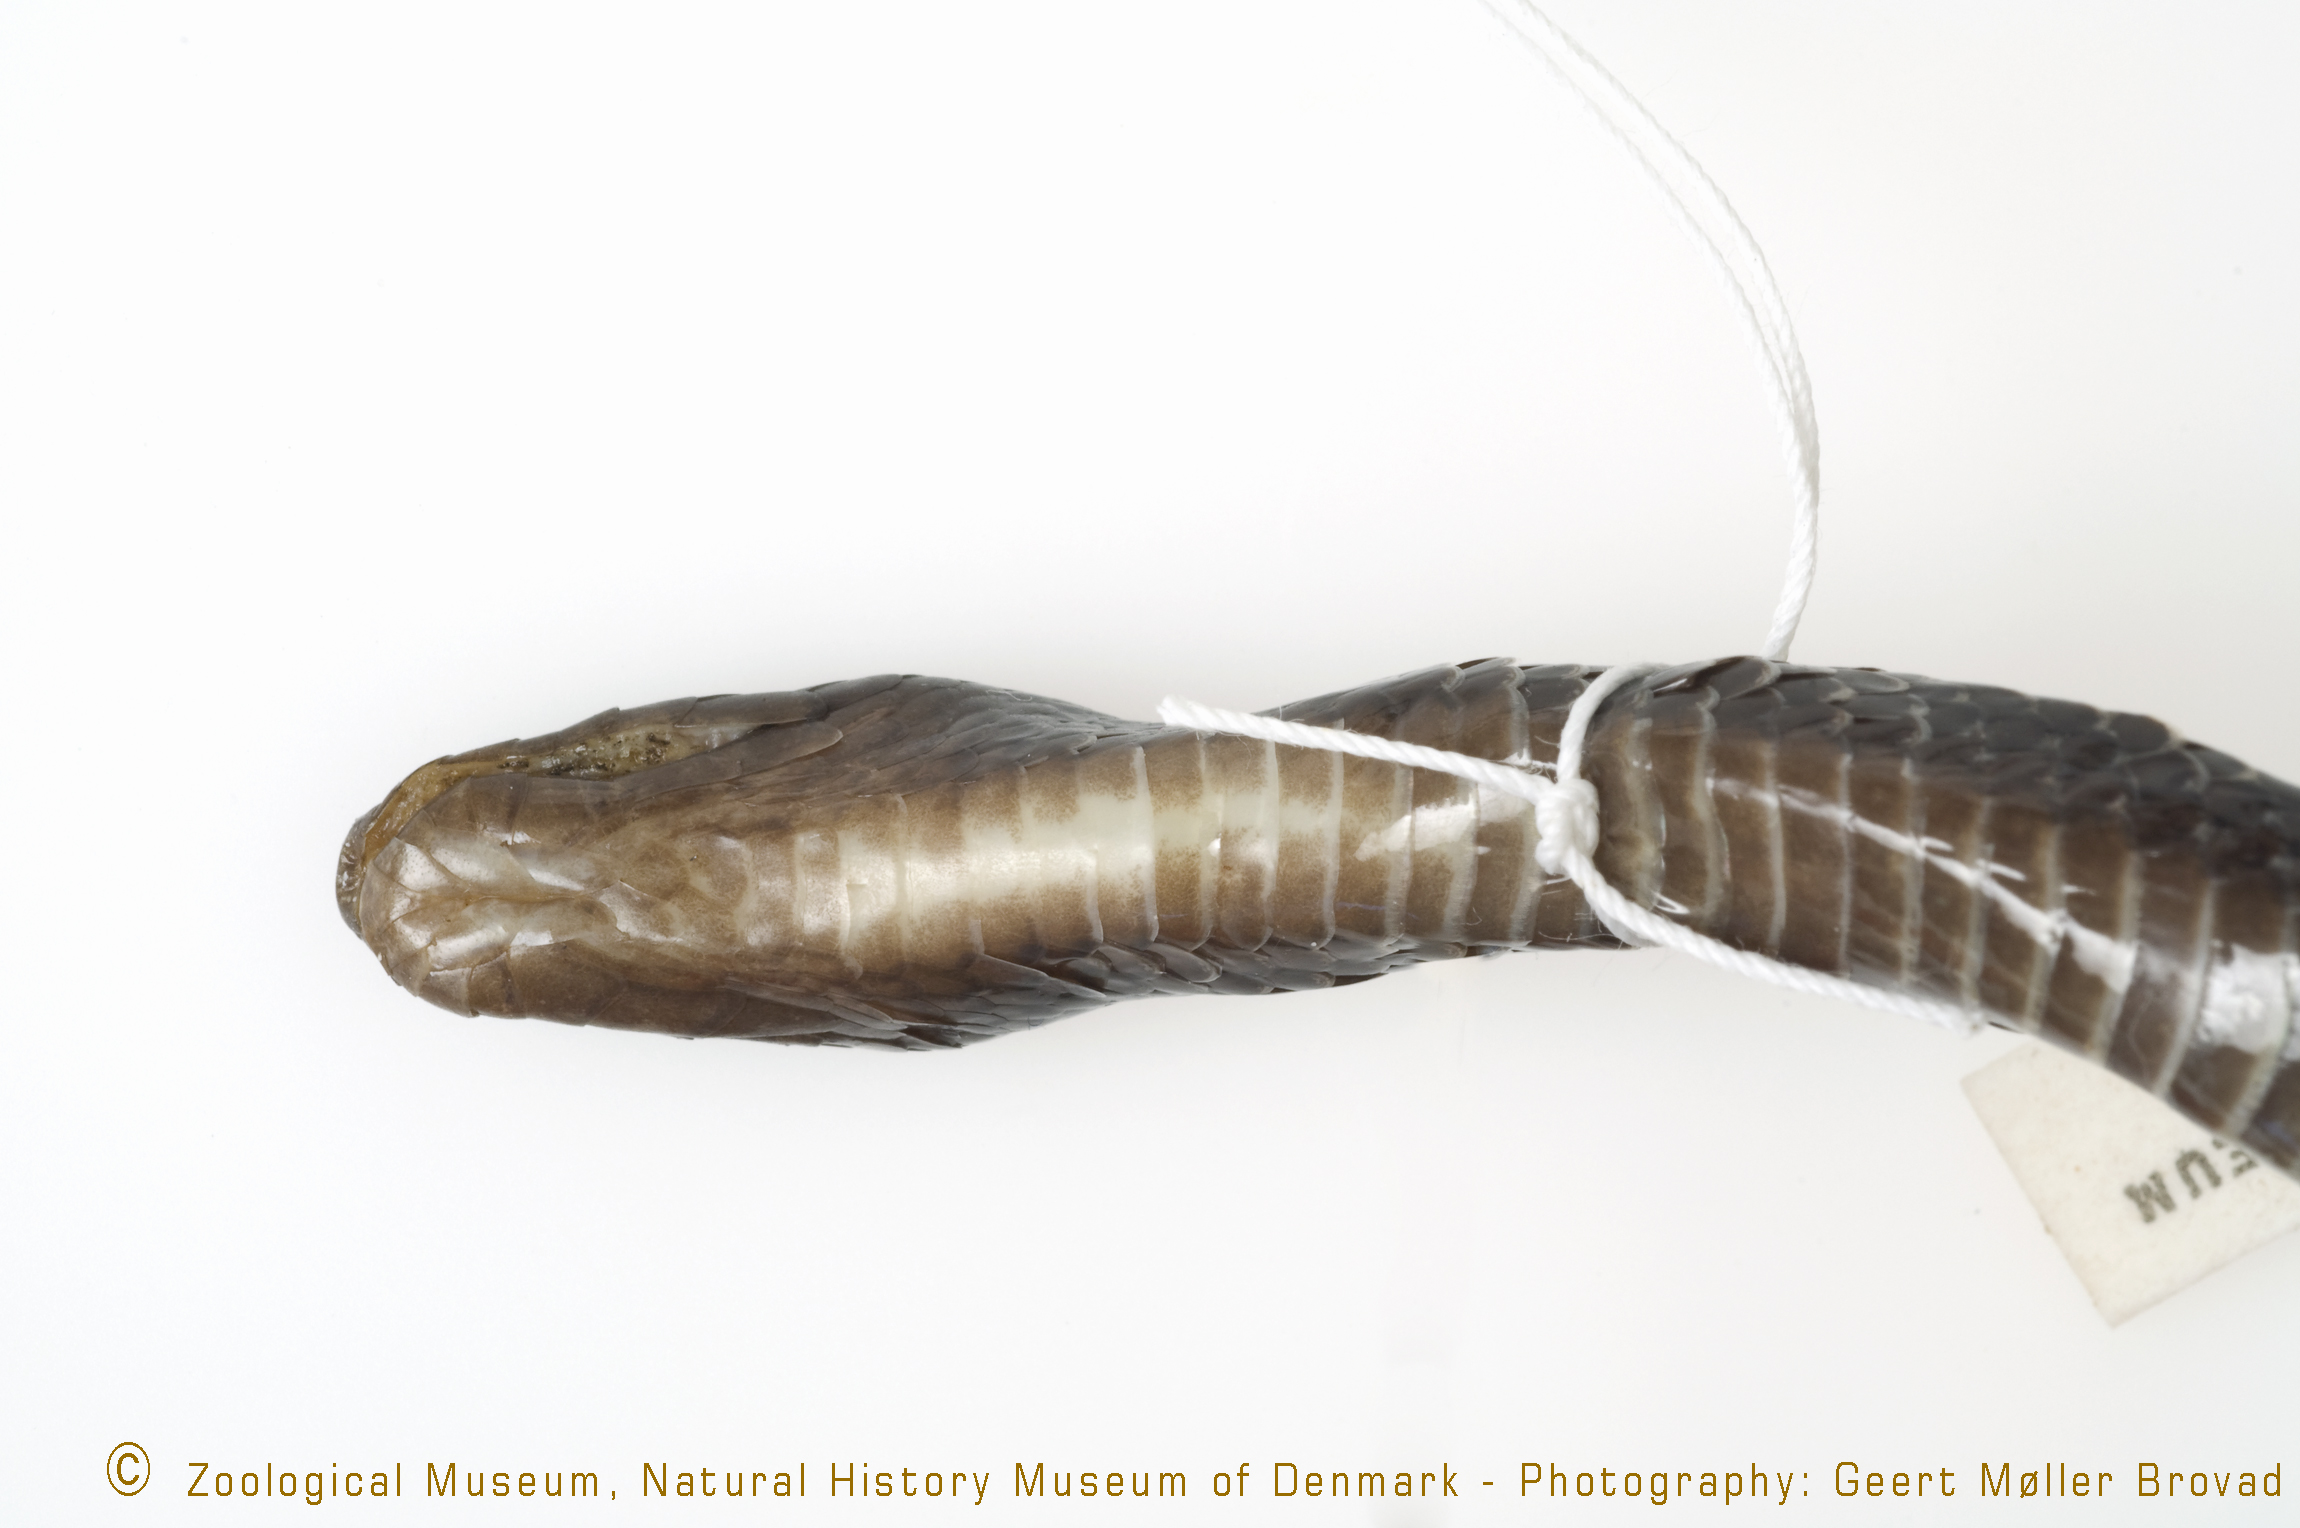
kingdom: Animalia
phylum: Chordata
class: Squamata
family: Lamprophiidae
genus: Lycophidion
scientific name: Lycophidion capense
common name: Cape wolf snake
